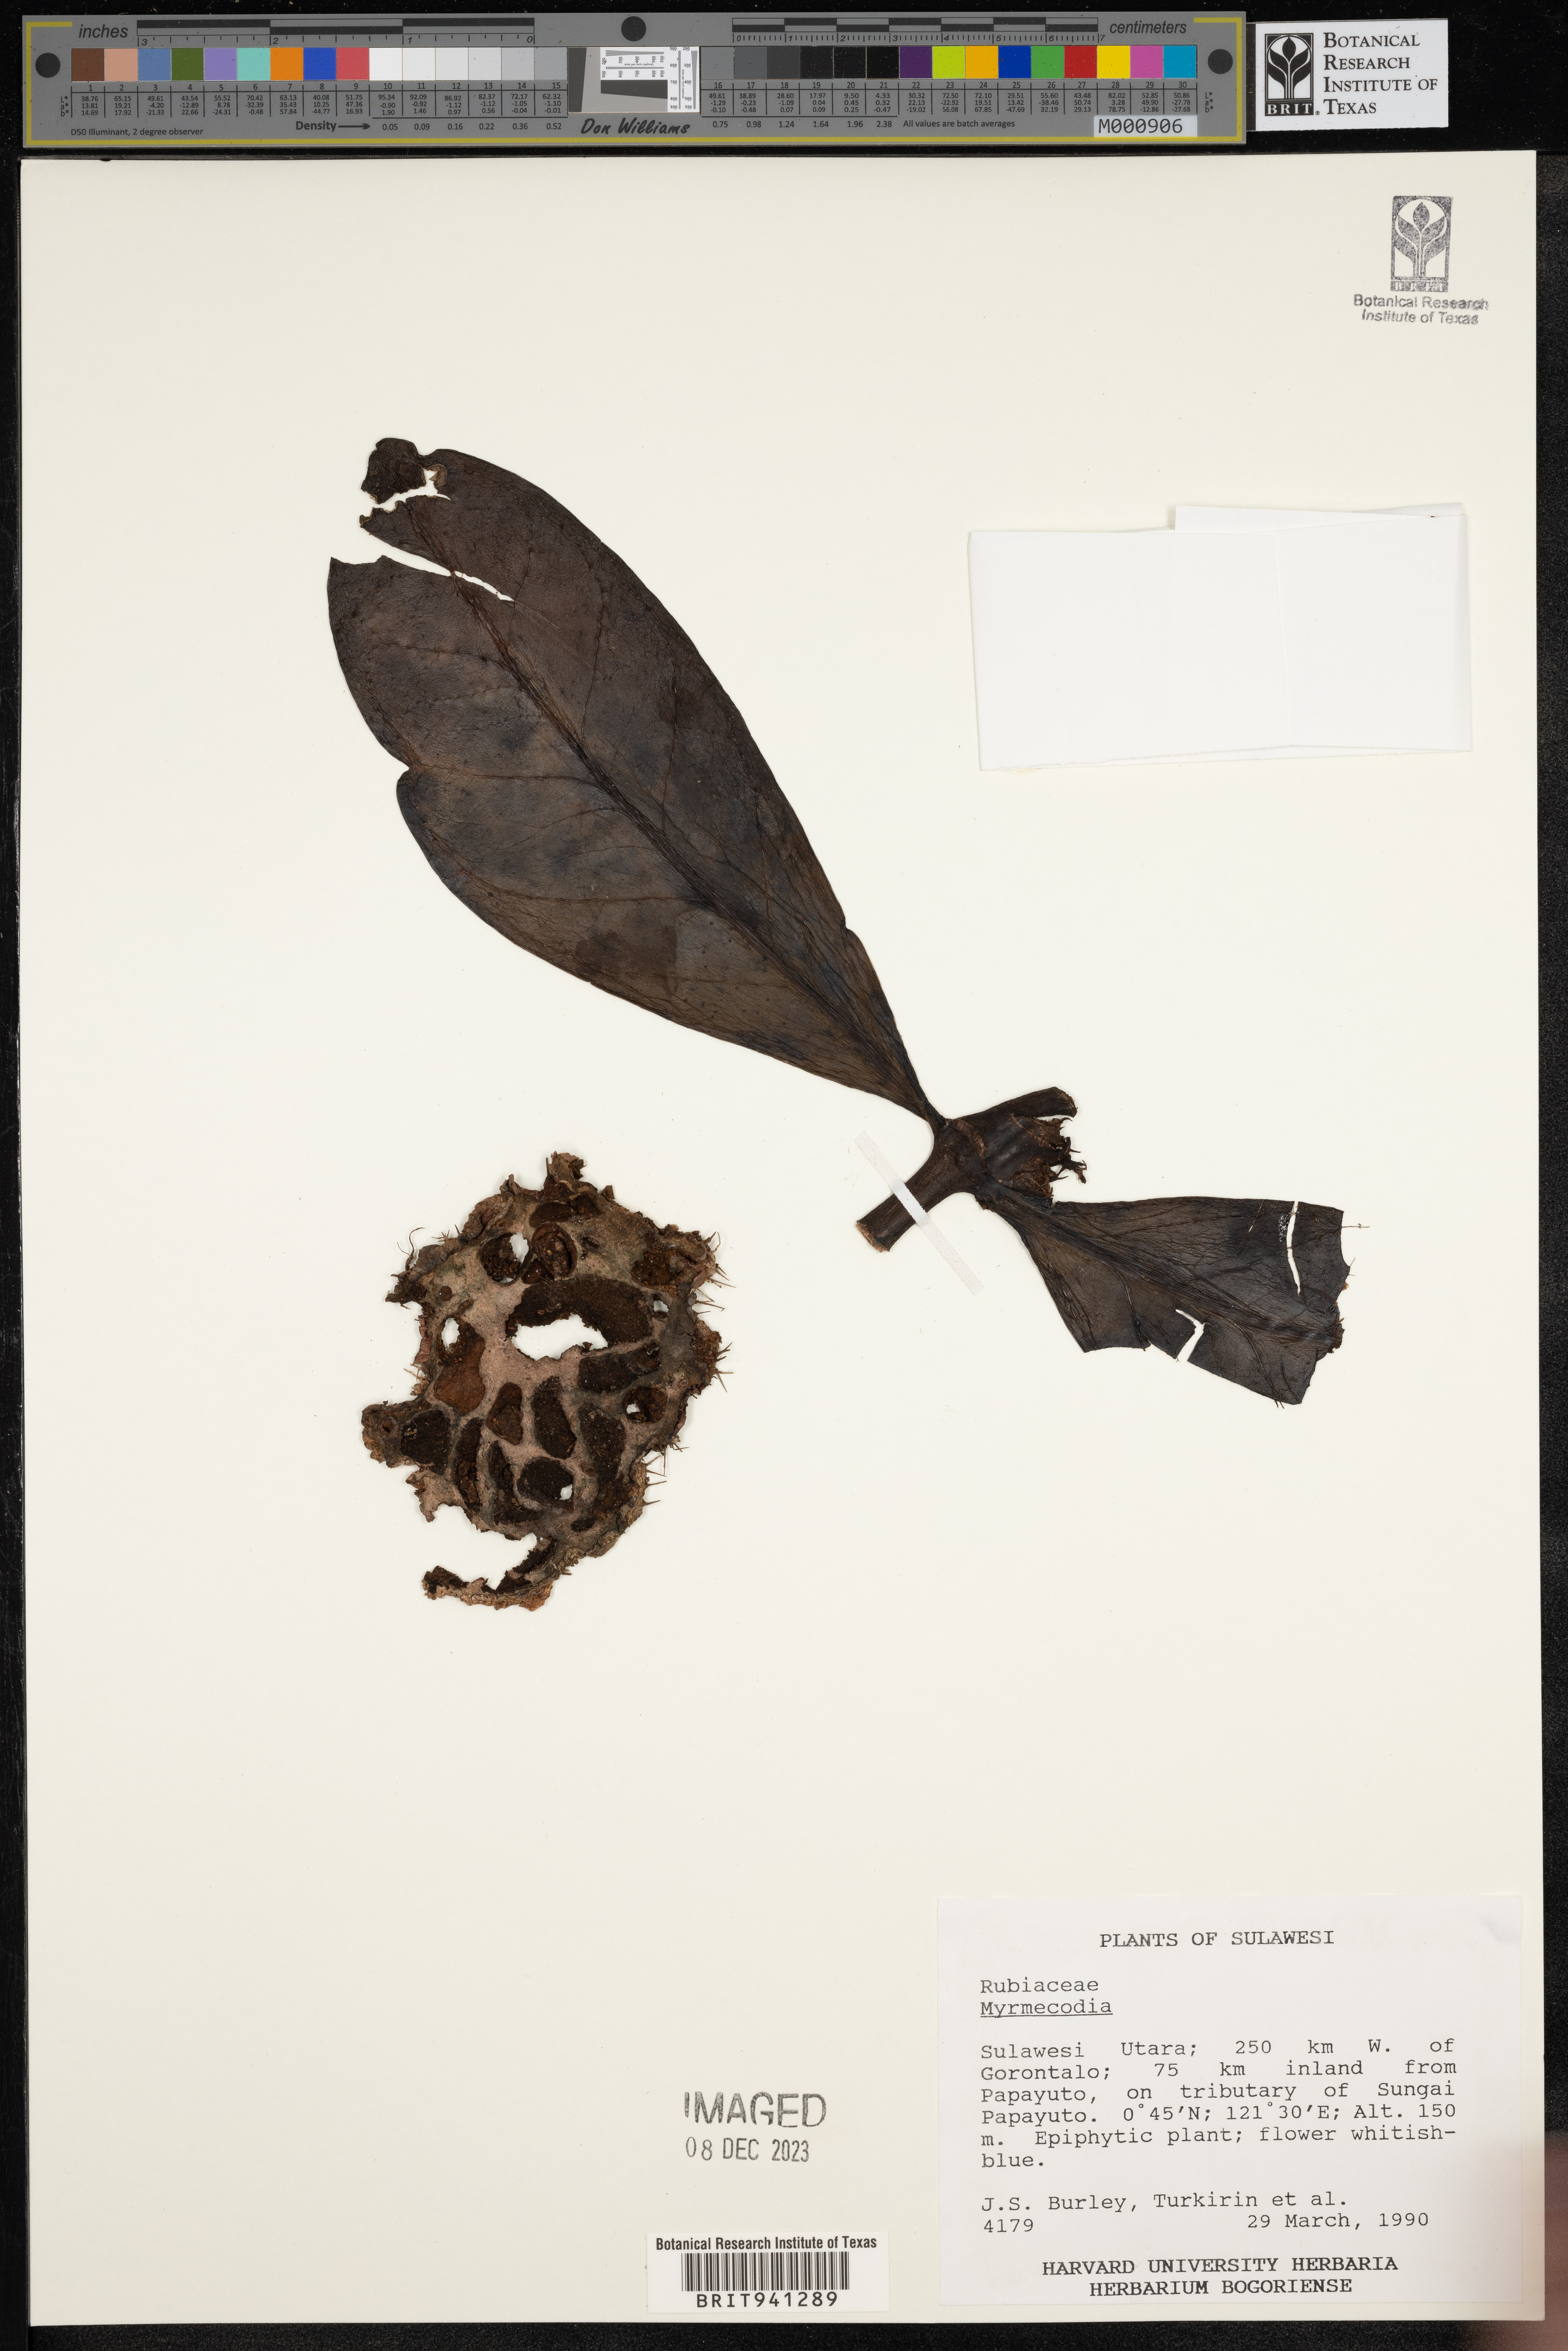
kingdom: Plantae
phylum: Tracheophyta
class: Magnoliopsida
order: Gentianales
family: Rubiaceae
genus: Myrmecodia
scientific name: Myrmecodia
